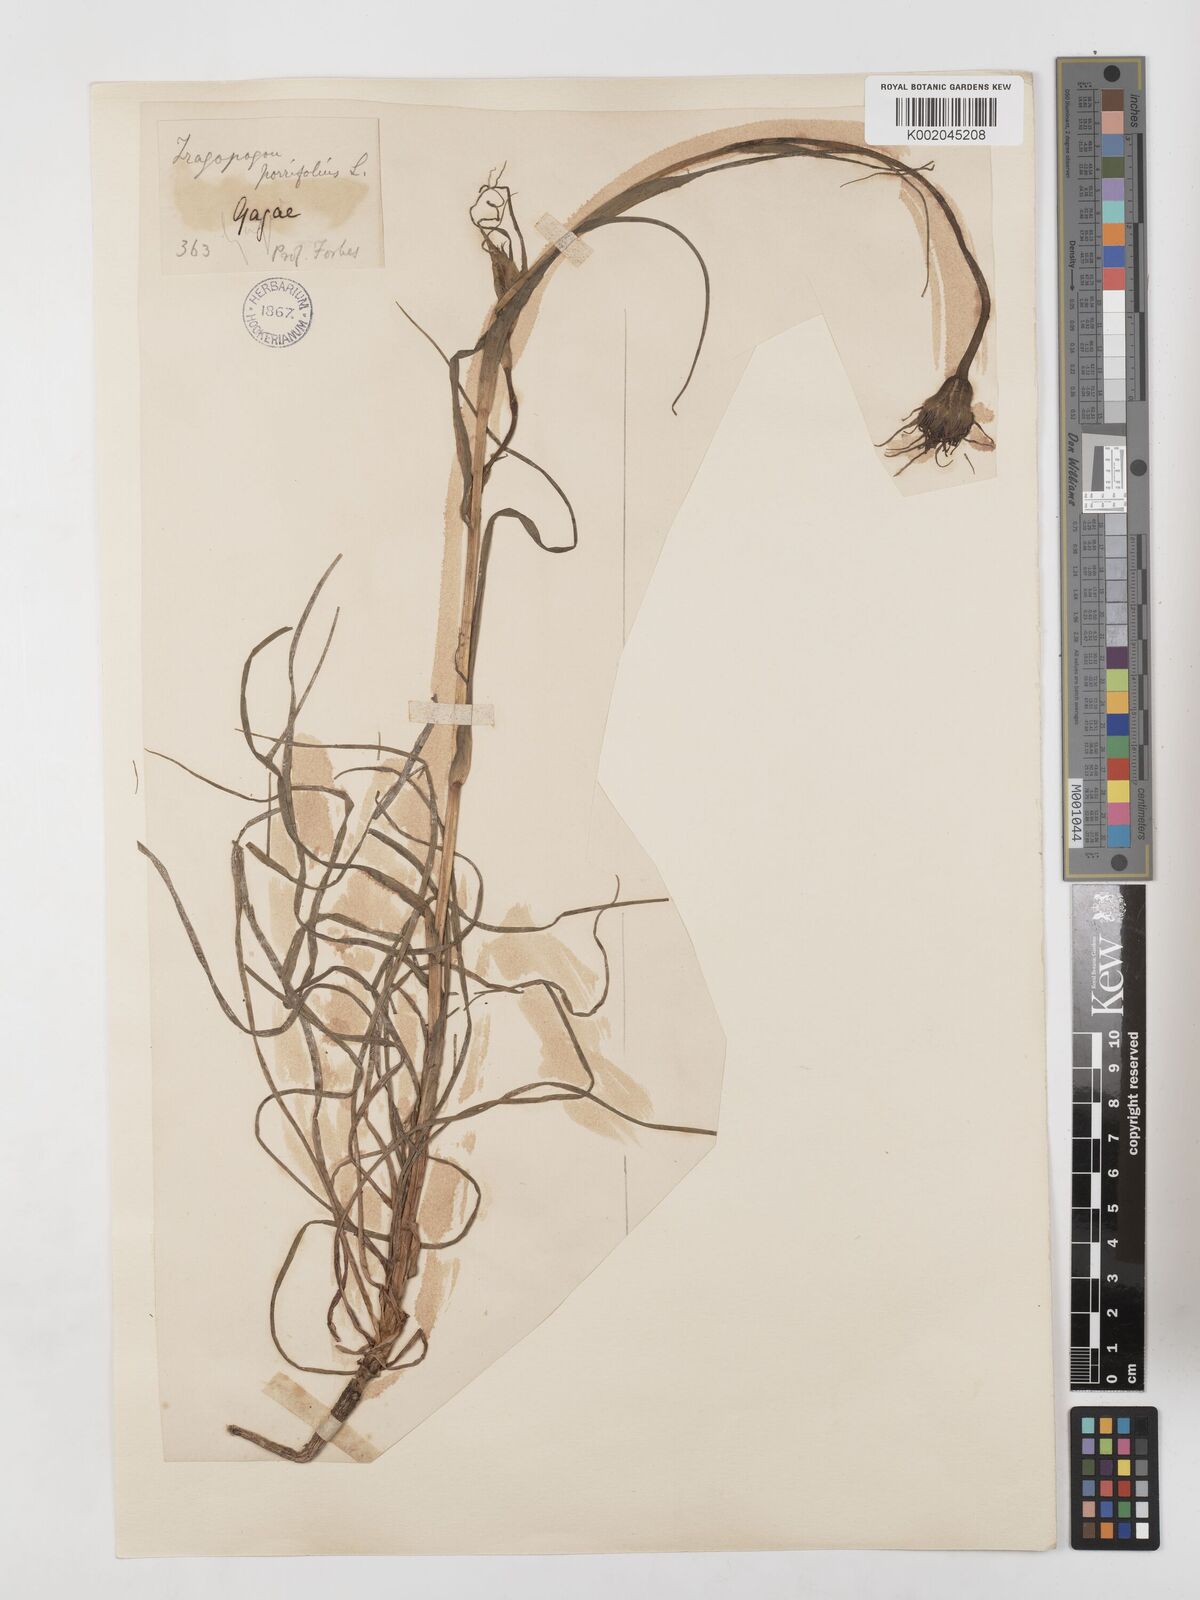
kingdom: Plantae
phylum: Tracheophyta
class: Magnoliopsida
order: Asterales
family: Asteraceae
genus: Tragopogon
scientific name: Tragopogon coelesyriacus
